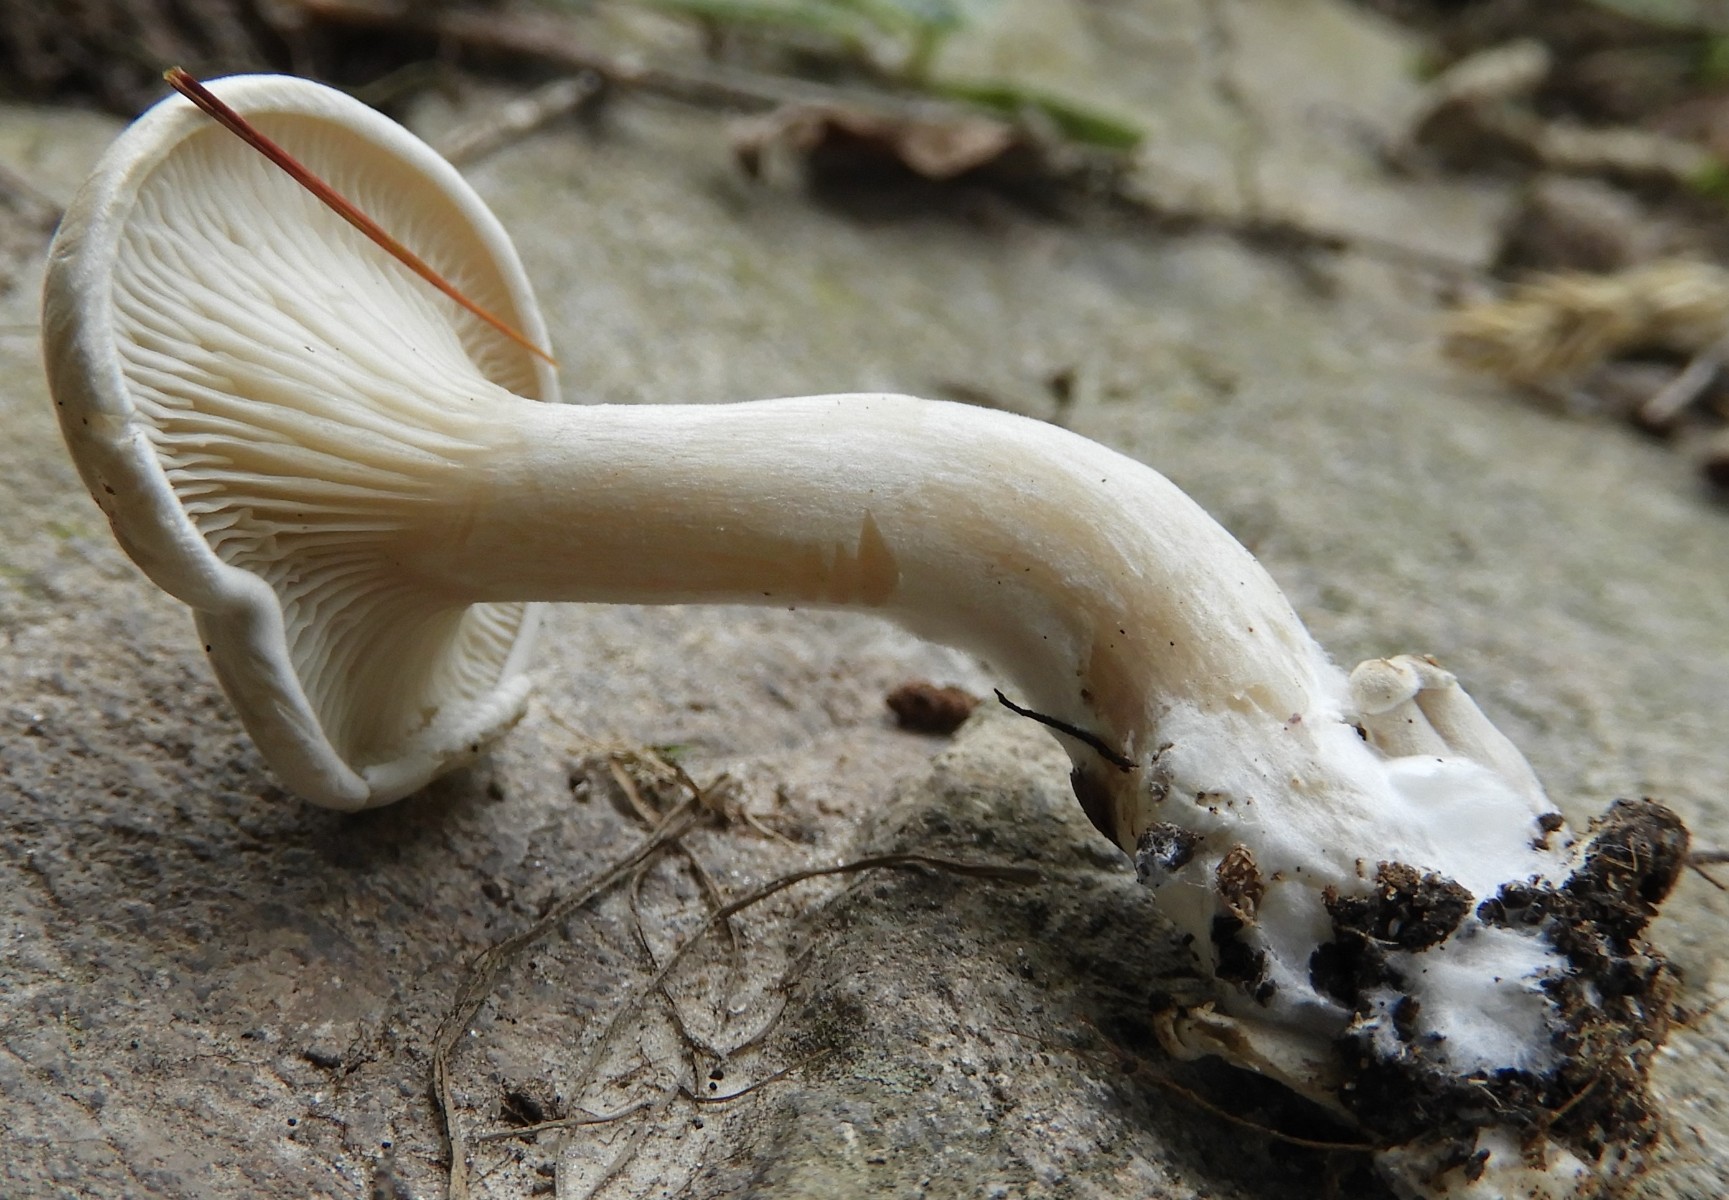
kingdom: Fungi
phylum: Basidiomycota
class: Agaricomycetes
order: Agaricales
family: Entolomataceae
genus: Clitopilus
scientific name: Clitopilus prunulus
